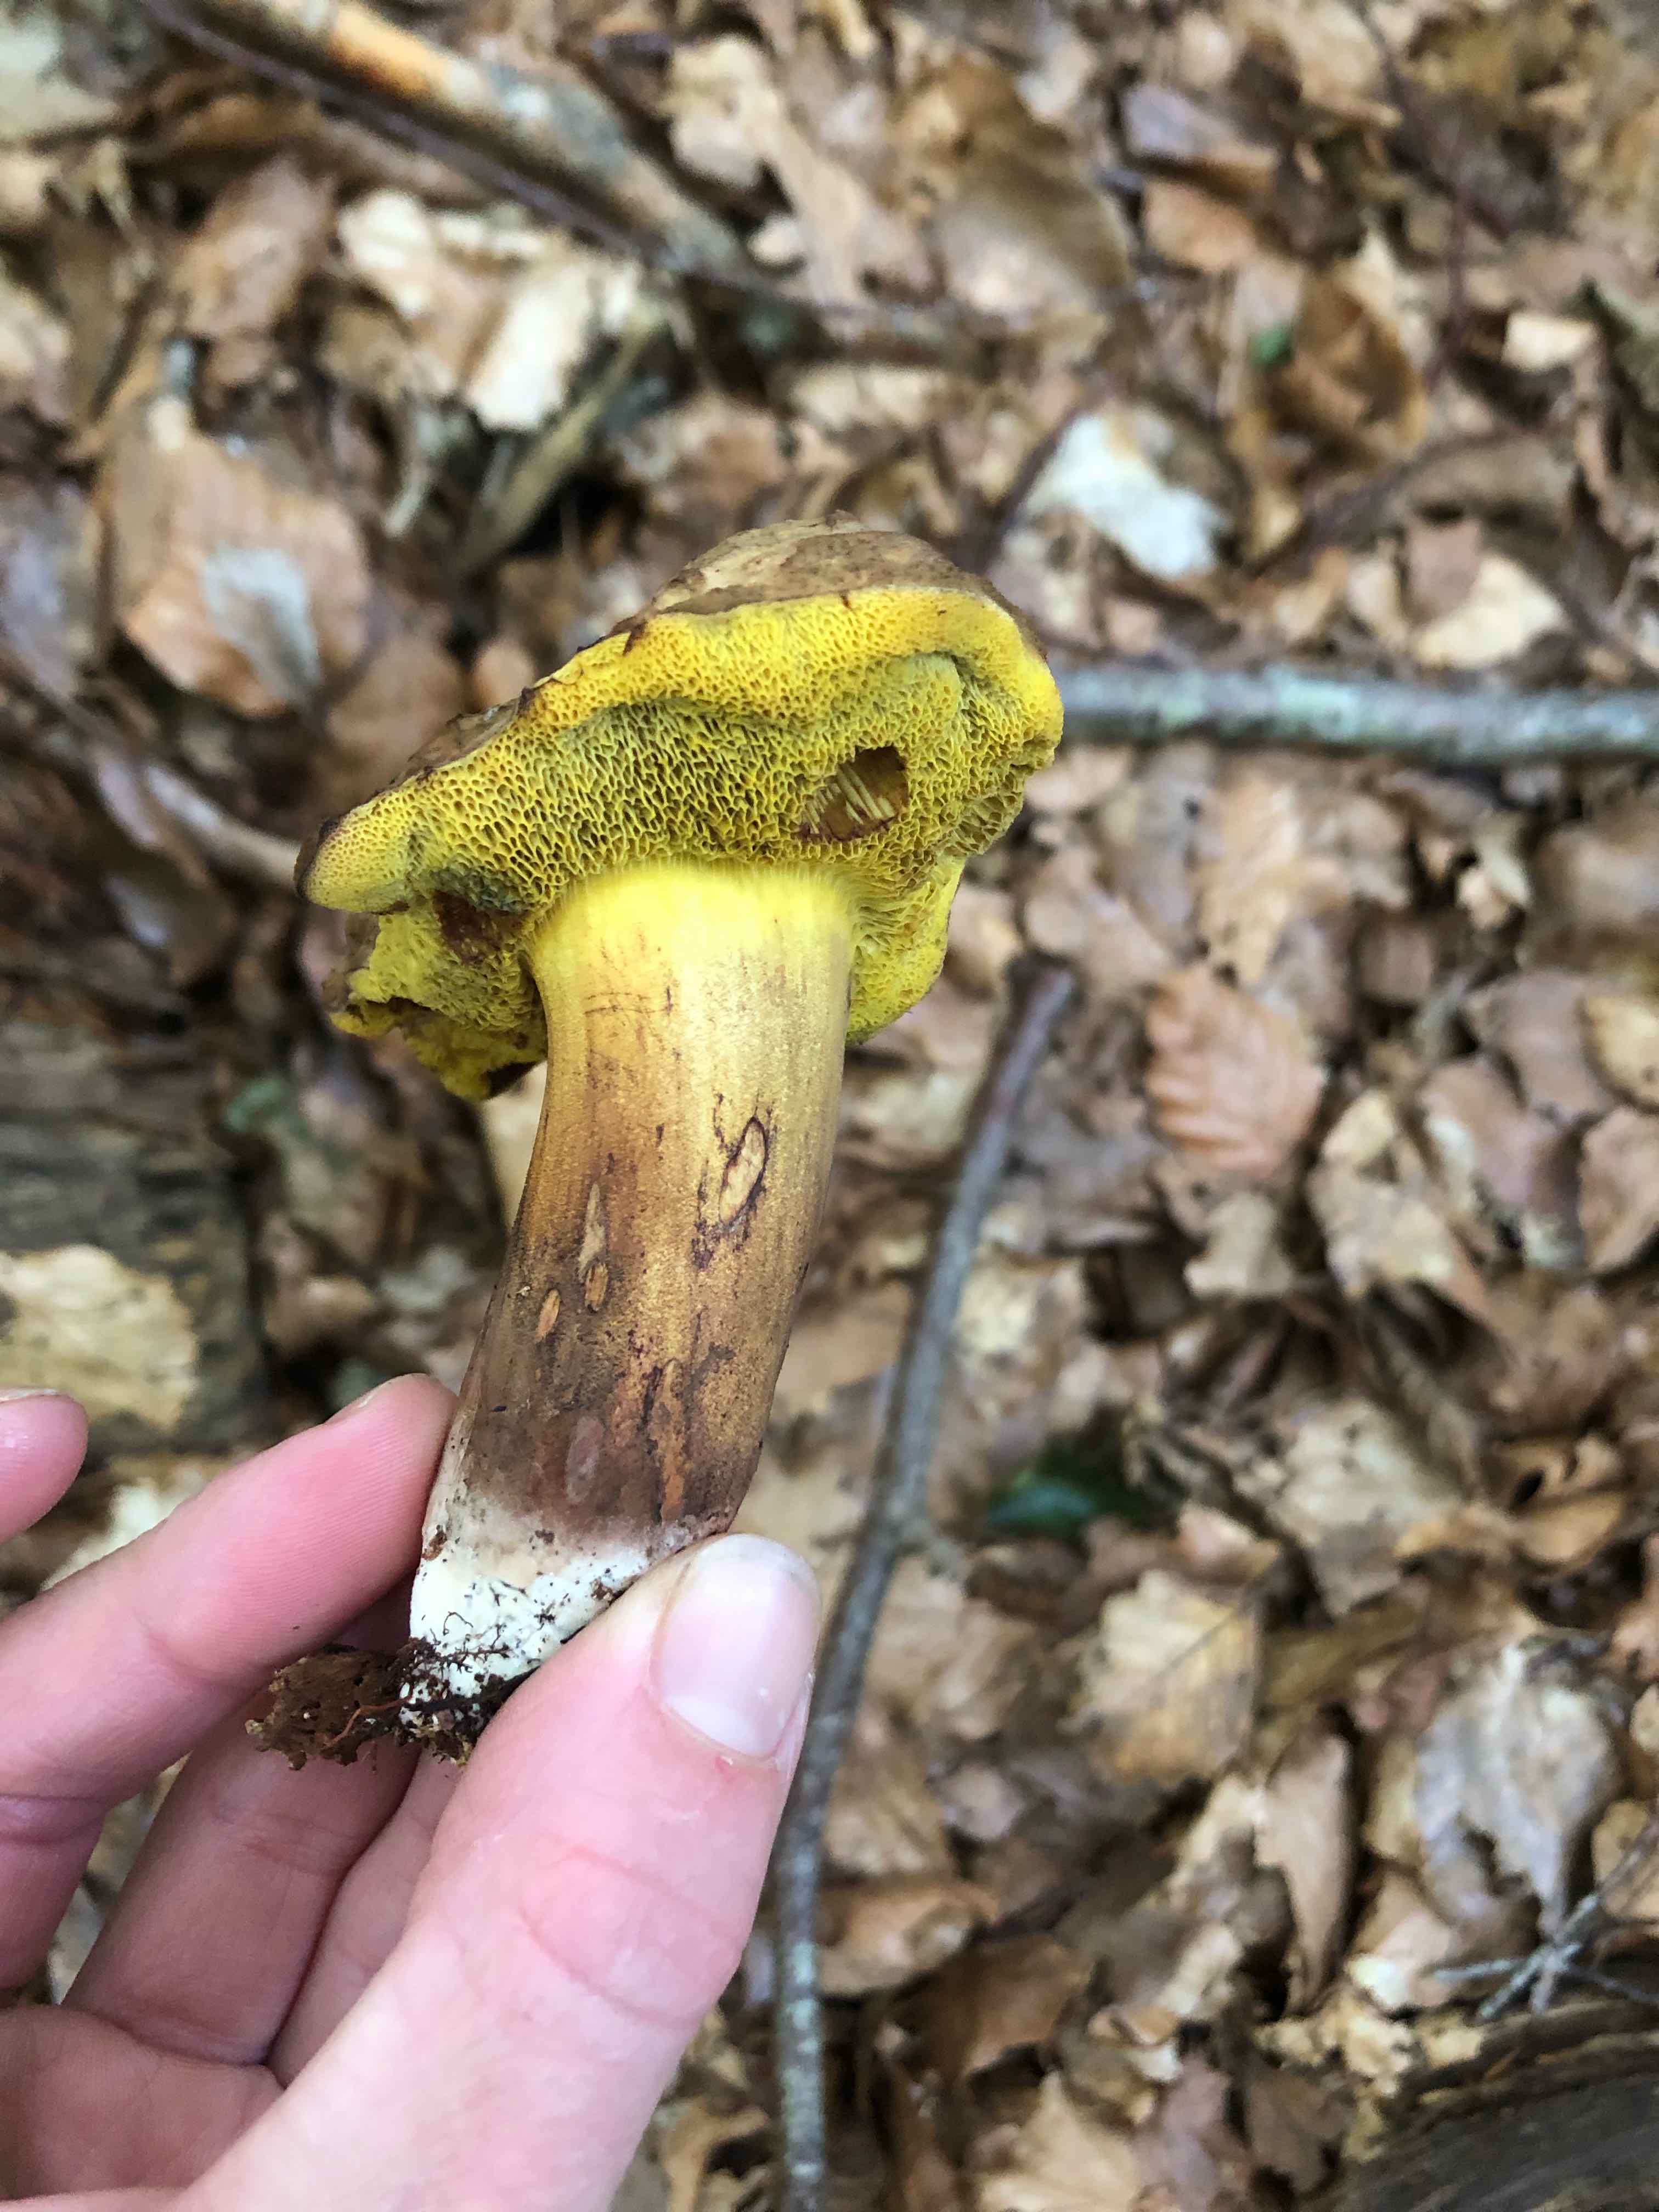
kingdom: Fungi
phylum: Basidiomycota
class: Agaricomycetes
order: Boletales
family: Boletaceae
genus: Cyanoboletus
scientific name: Cyanoboletus pulverulentus
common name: sortblånende rørhat
